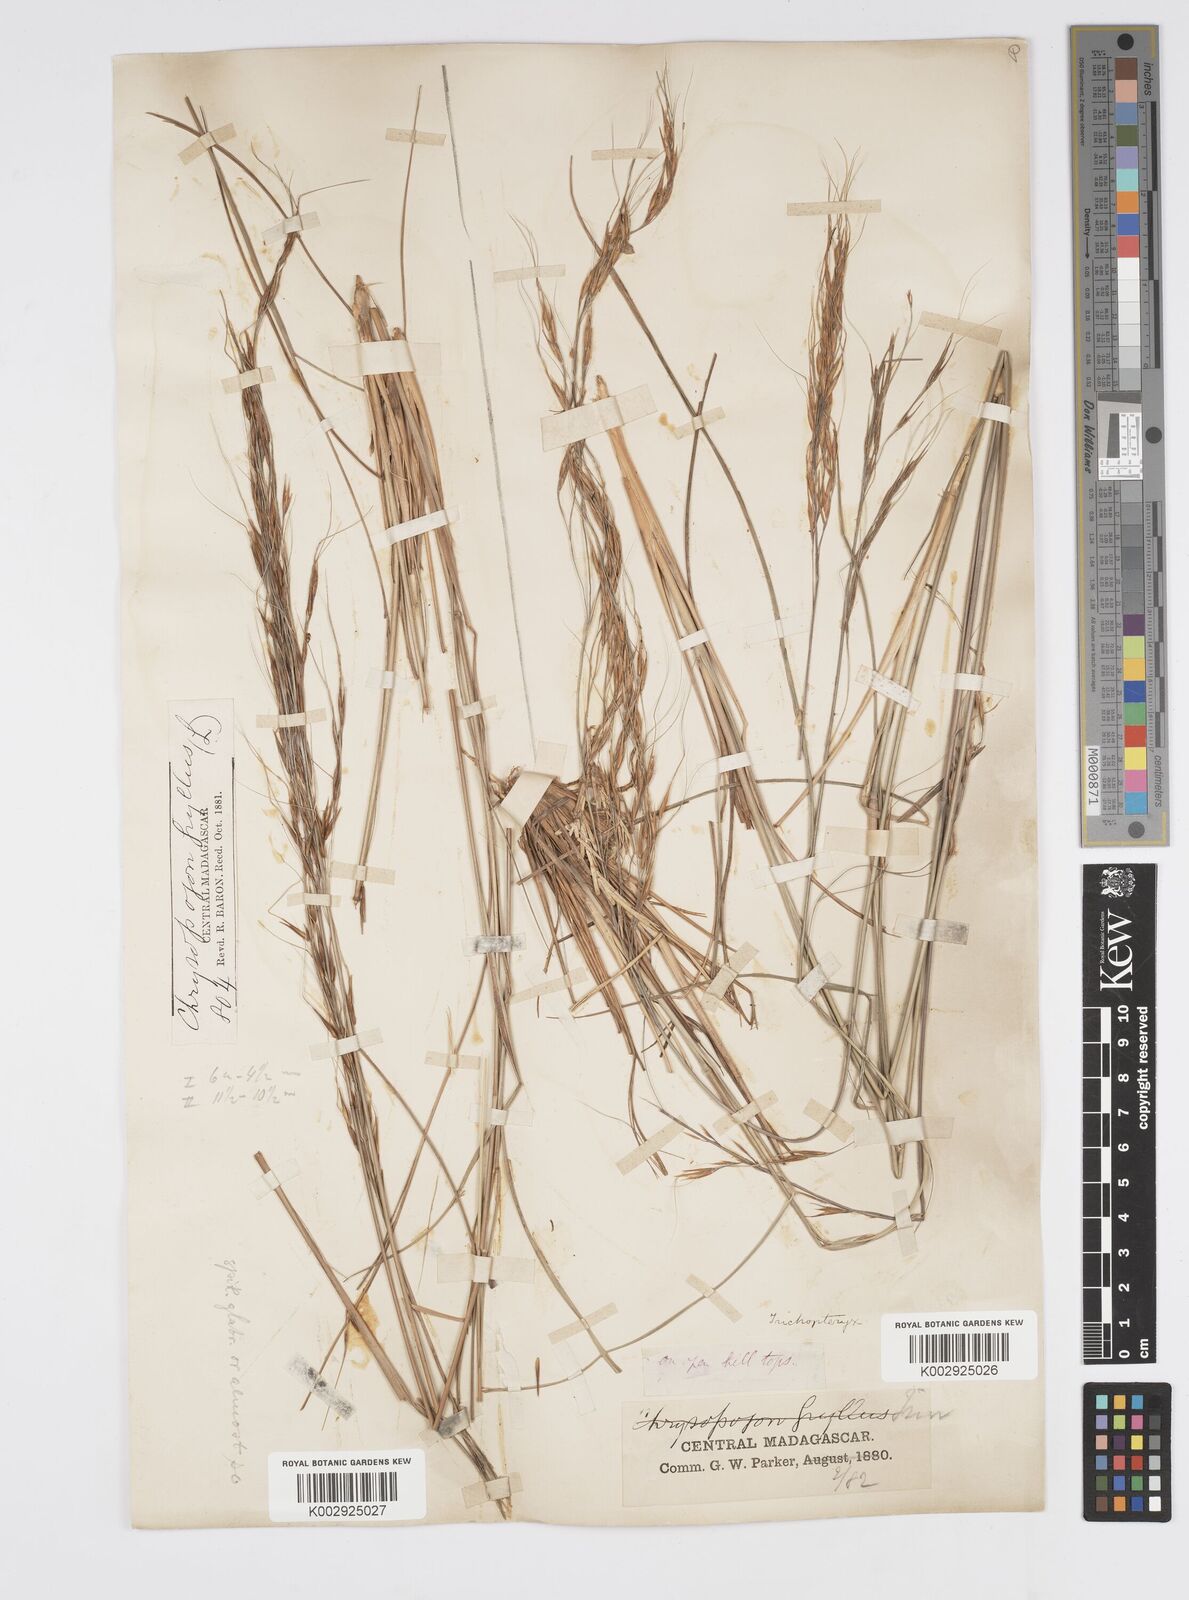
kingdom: Plantae
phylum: Tracheophyta
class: Liliopsida
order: Poales
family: Poaceae
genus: Loudetia
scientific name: Loudetia
